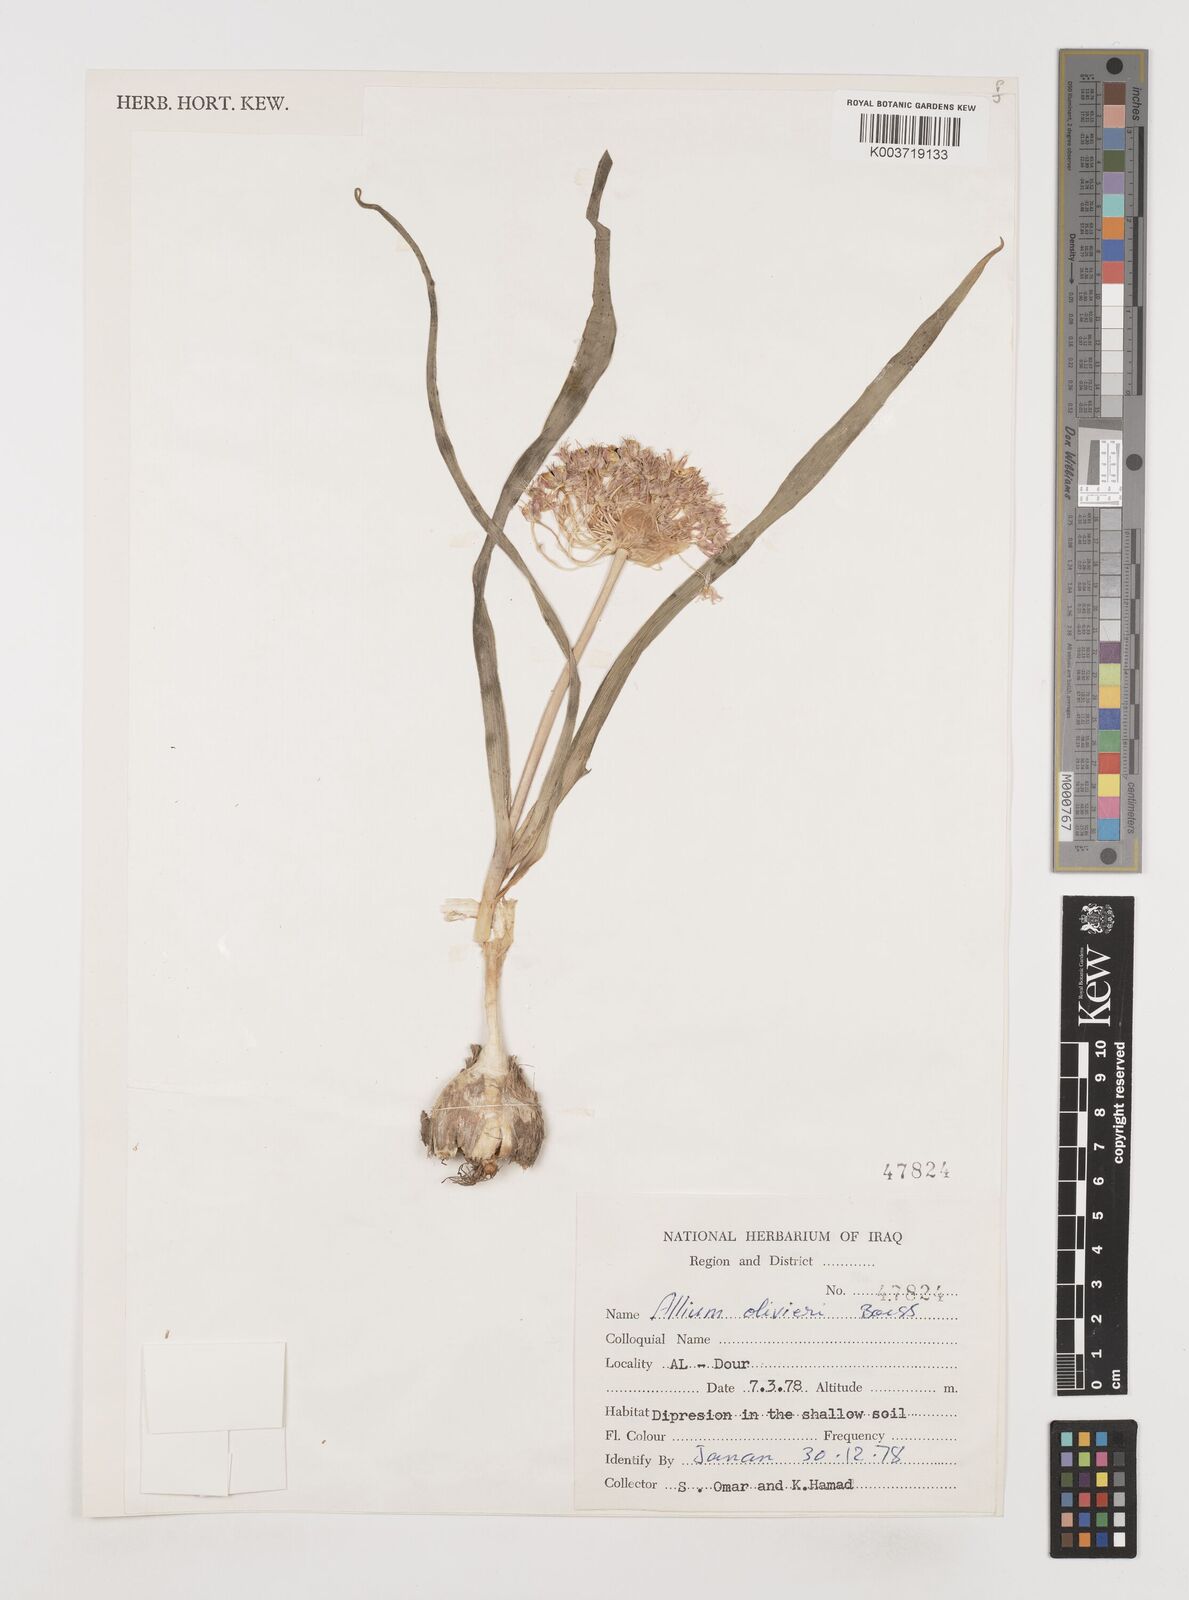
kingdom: Plantae
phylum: Tracheophyta
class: Liliopsida
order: Asparagales
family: Amaryllidaceae
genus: Allium
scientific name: Allium olivieri
